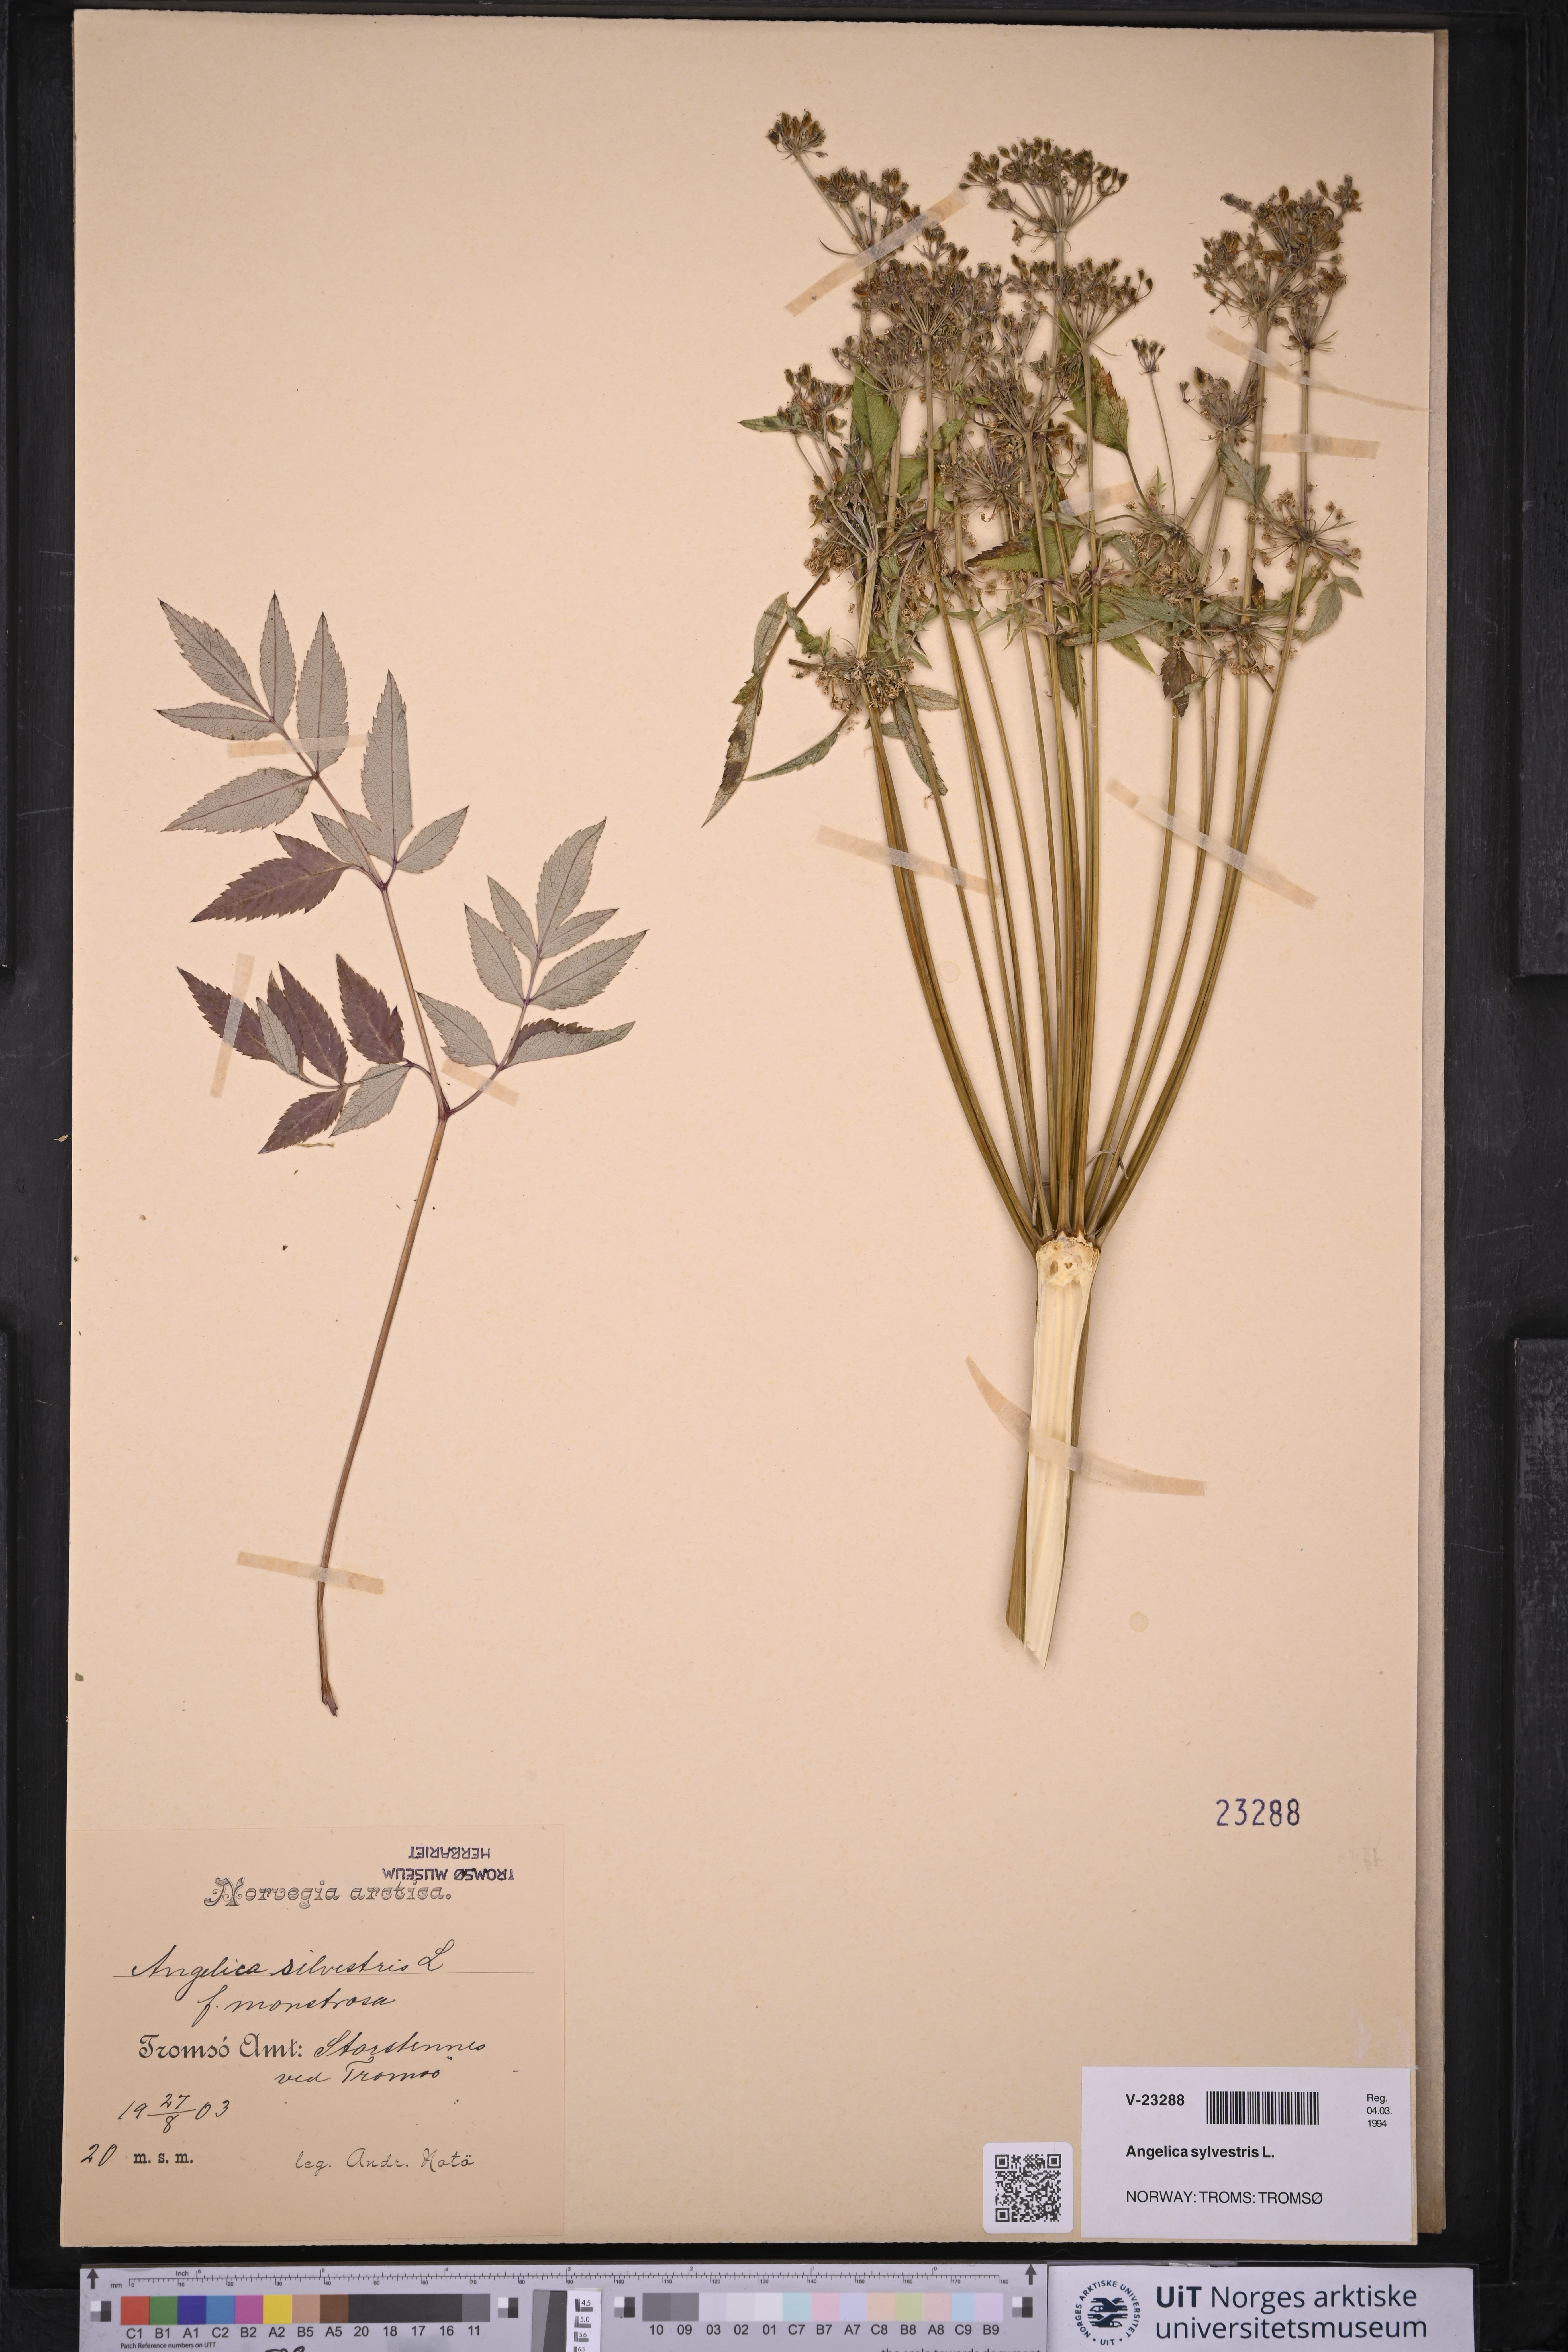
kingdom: Plantae
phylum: Tracheophyta
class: Magnoliopsida
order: Apiales
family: Apiaceae
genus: Angelica
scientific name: Angelica sylvestris
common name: Wild angelica
